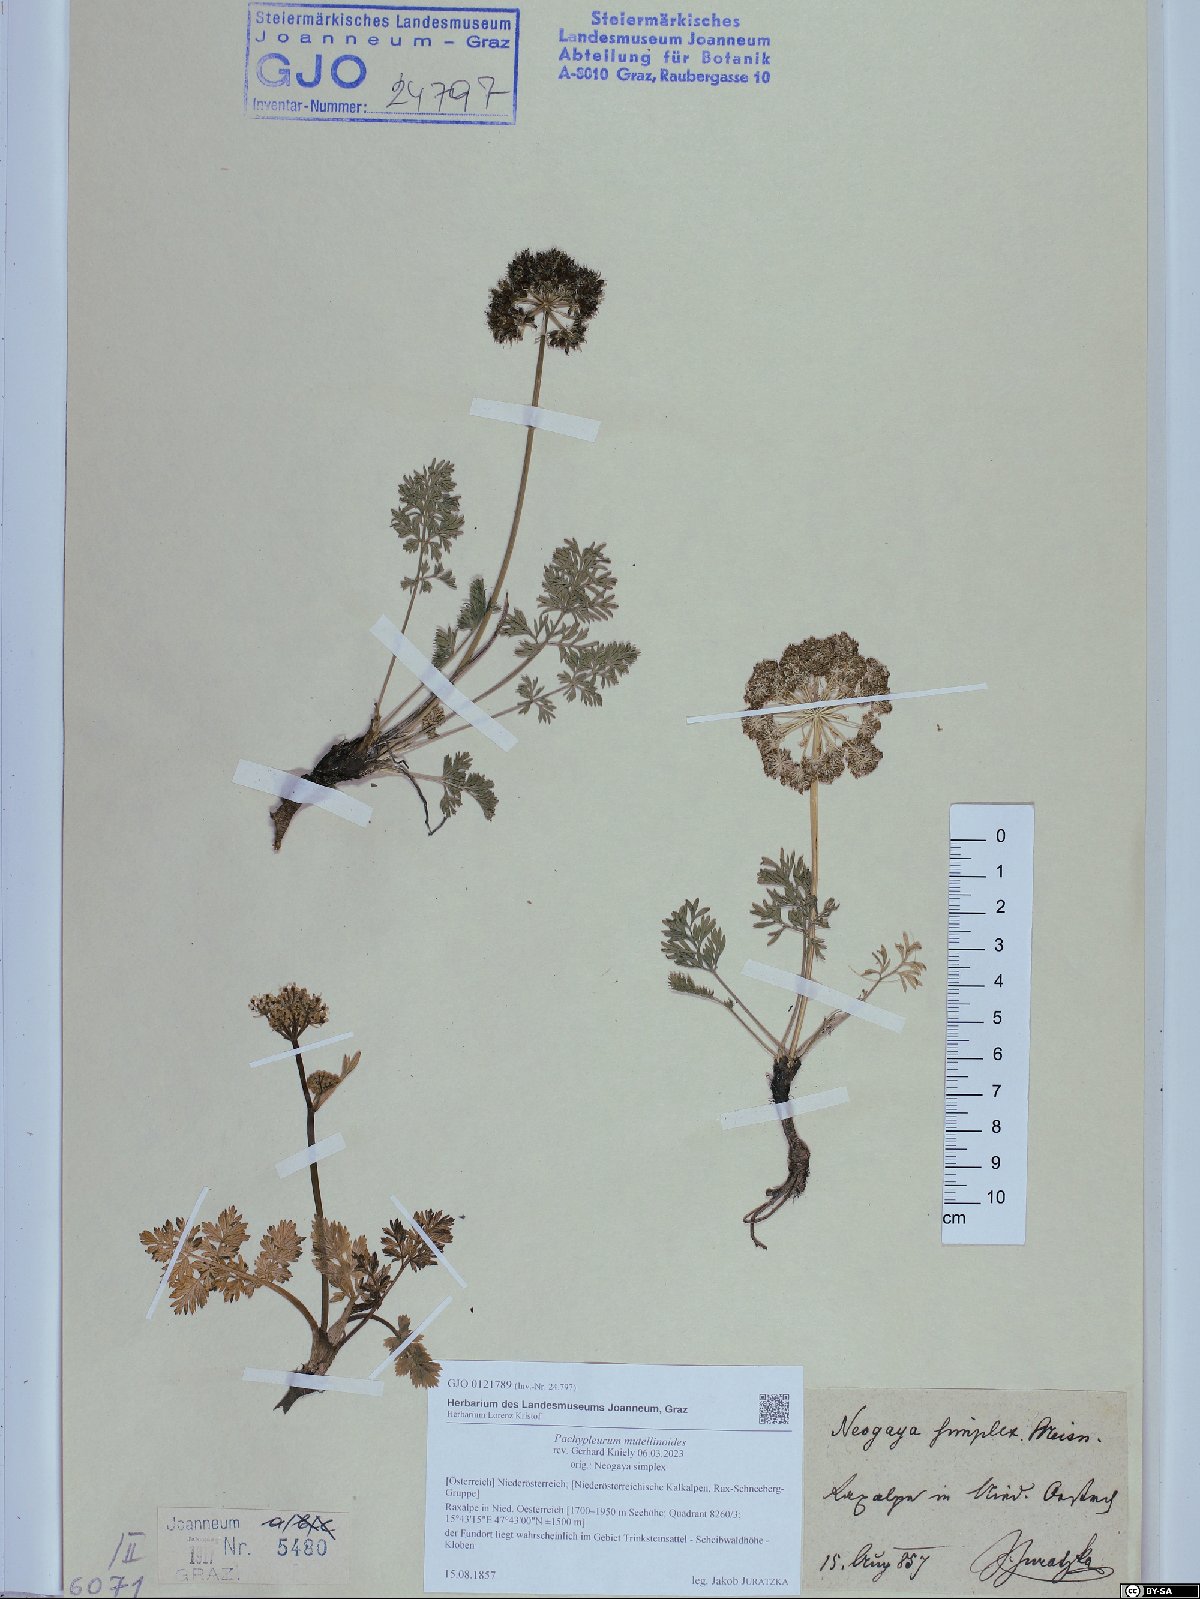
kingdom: Plantae
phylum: Tracheophyta
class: Magnoliopsida
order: Apiales
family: Apiaceae
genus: Pachypleurum
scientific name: Pachypleurum mutellinoides
